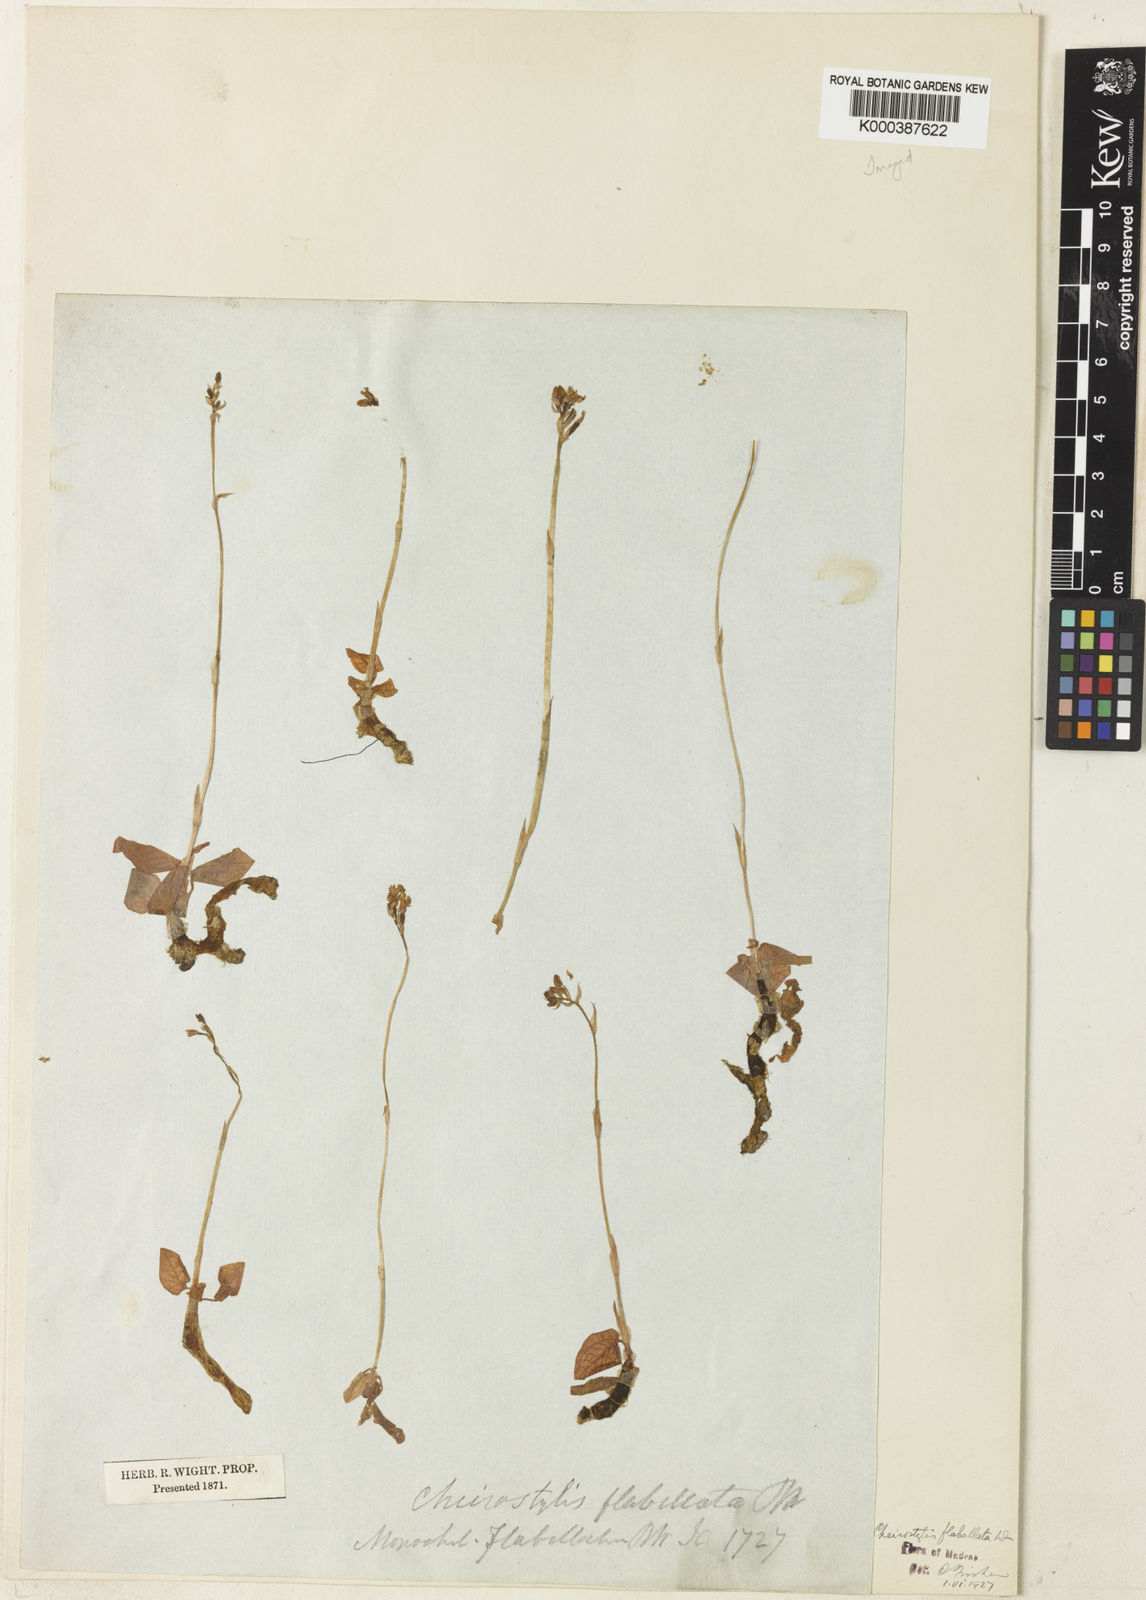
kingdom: Plantae
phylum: Tracheophyta
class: Liliopsida
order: Asparagales
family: Orchidaceae
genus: Cheirostylis
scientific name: Cheirostylis flabellata
